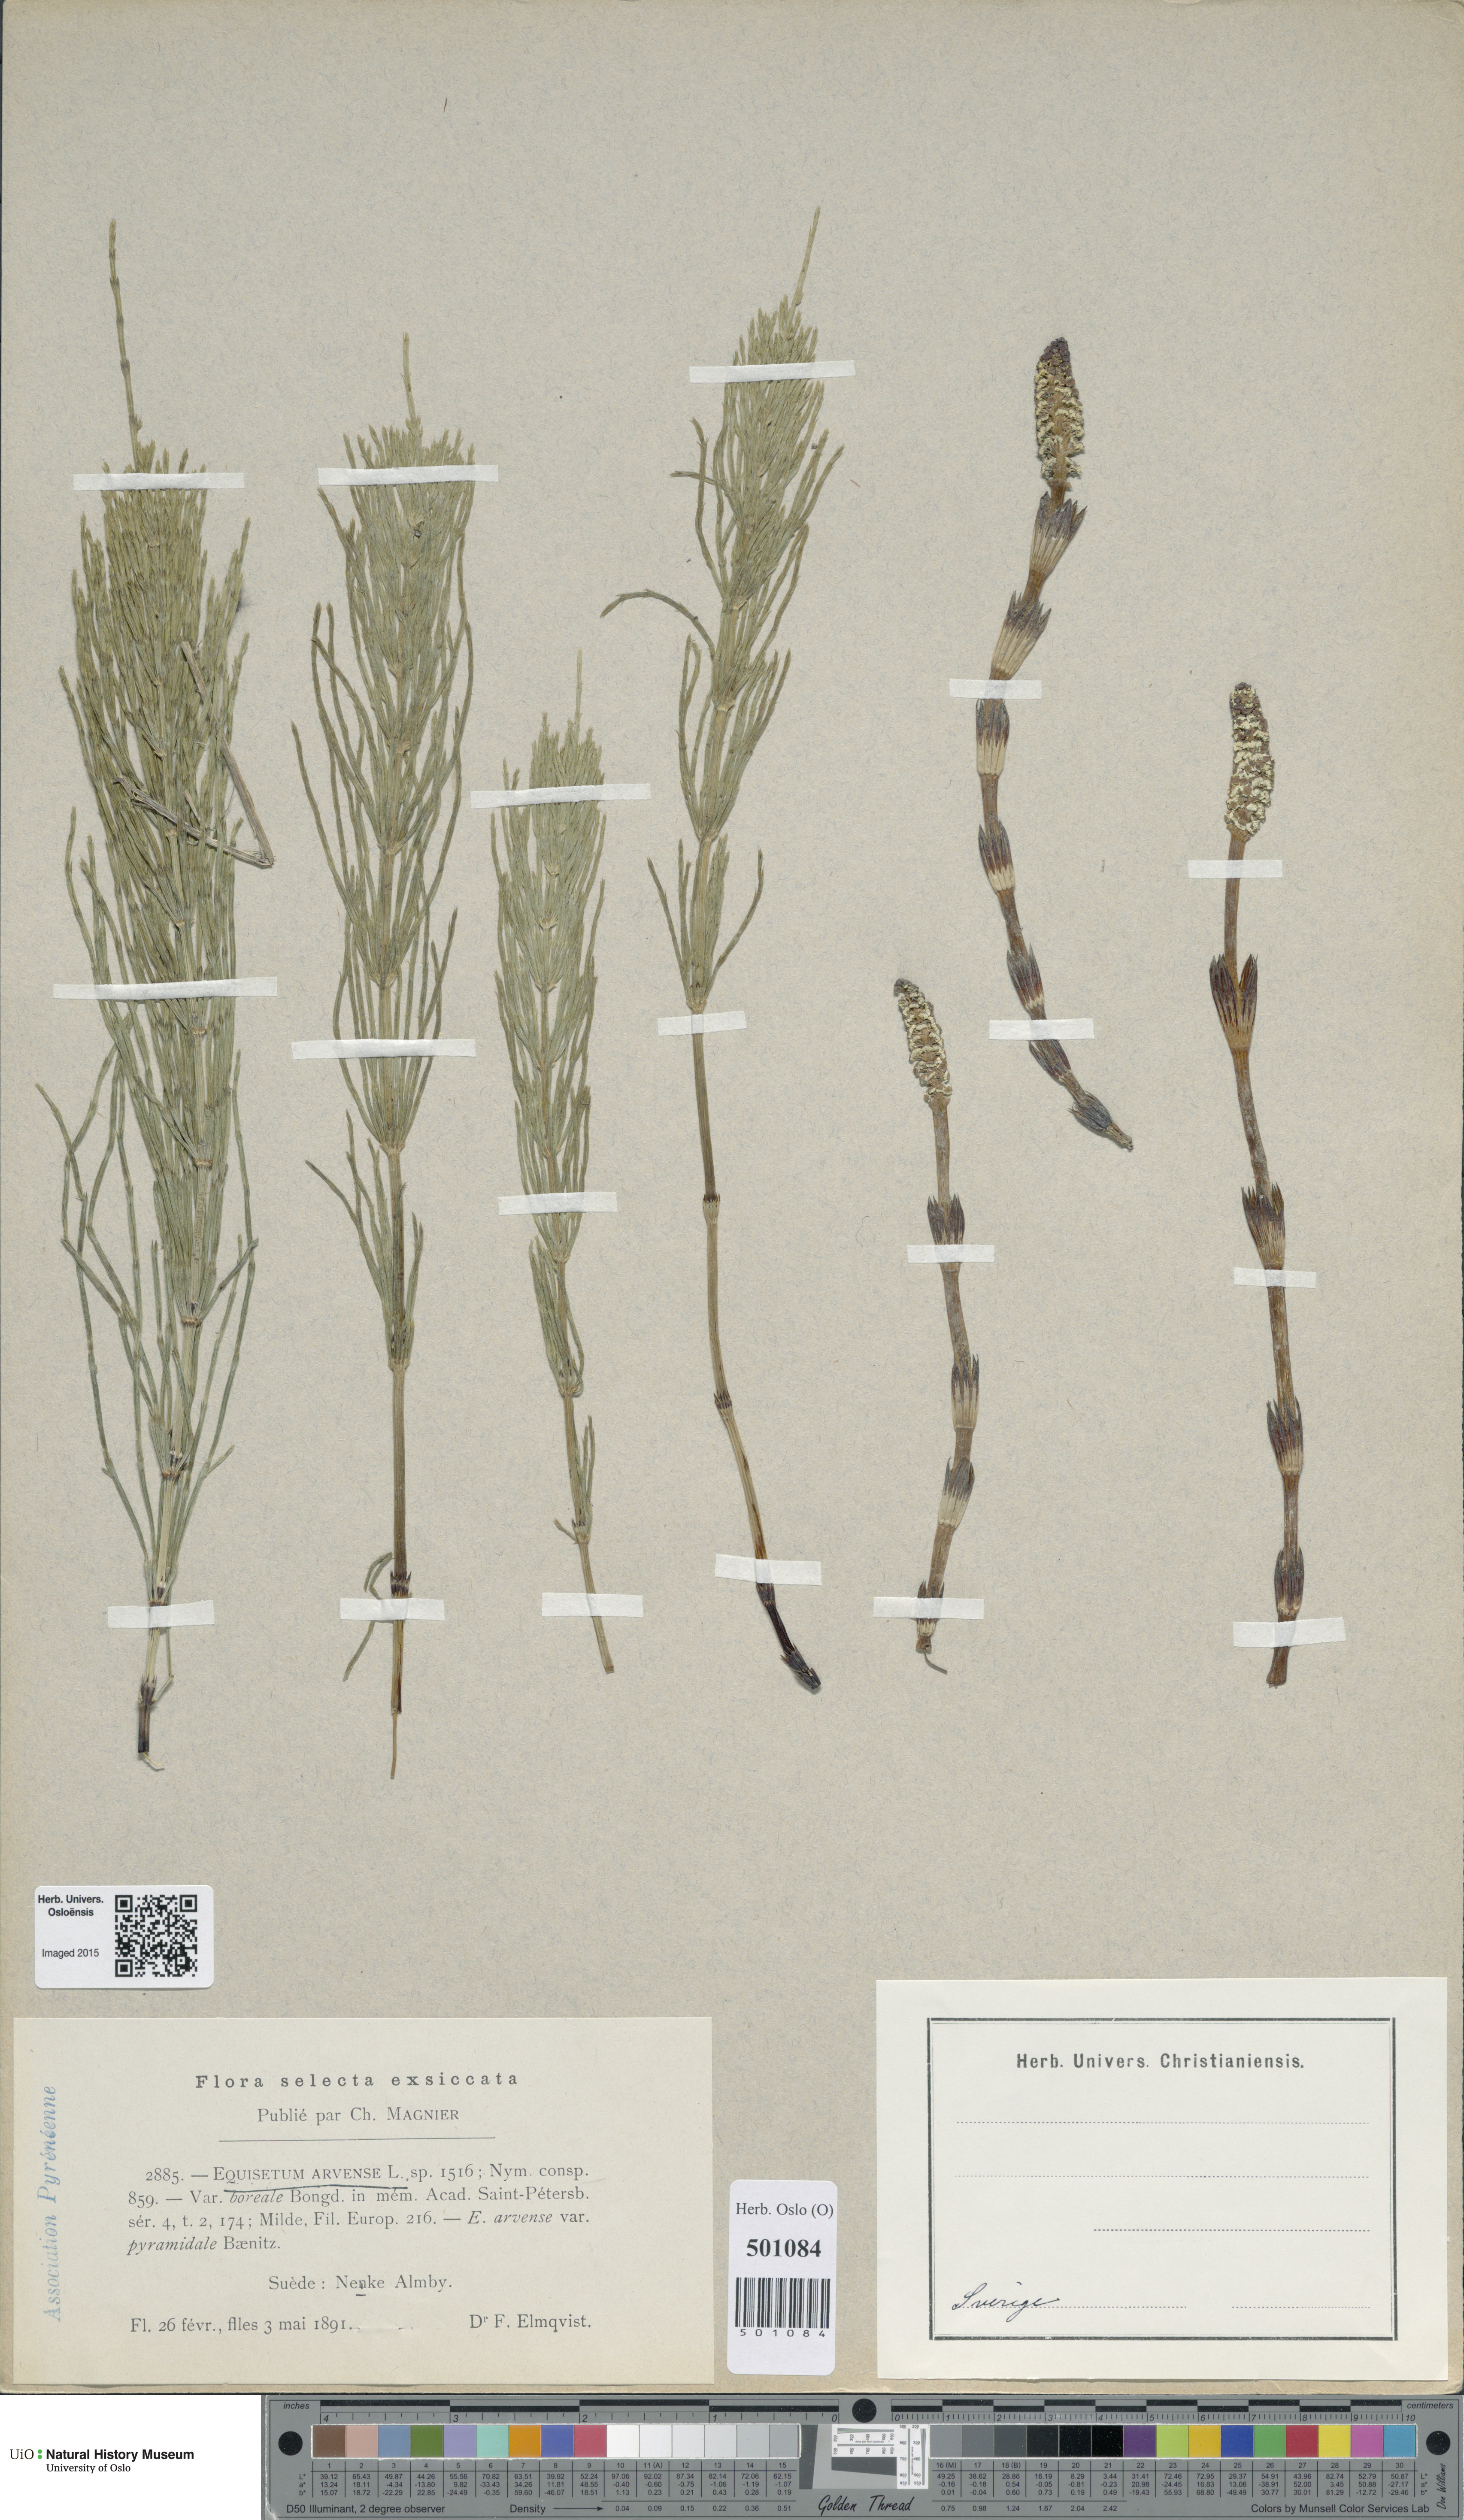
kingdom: Plantae
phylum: Tracheophyta
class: Polypodiopsida
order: Equisetales
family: Equisetaceae
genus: Equisetum
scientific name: Equisetum arvense
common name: Field horsetail
